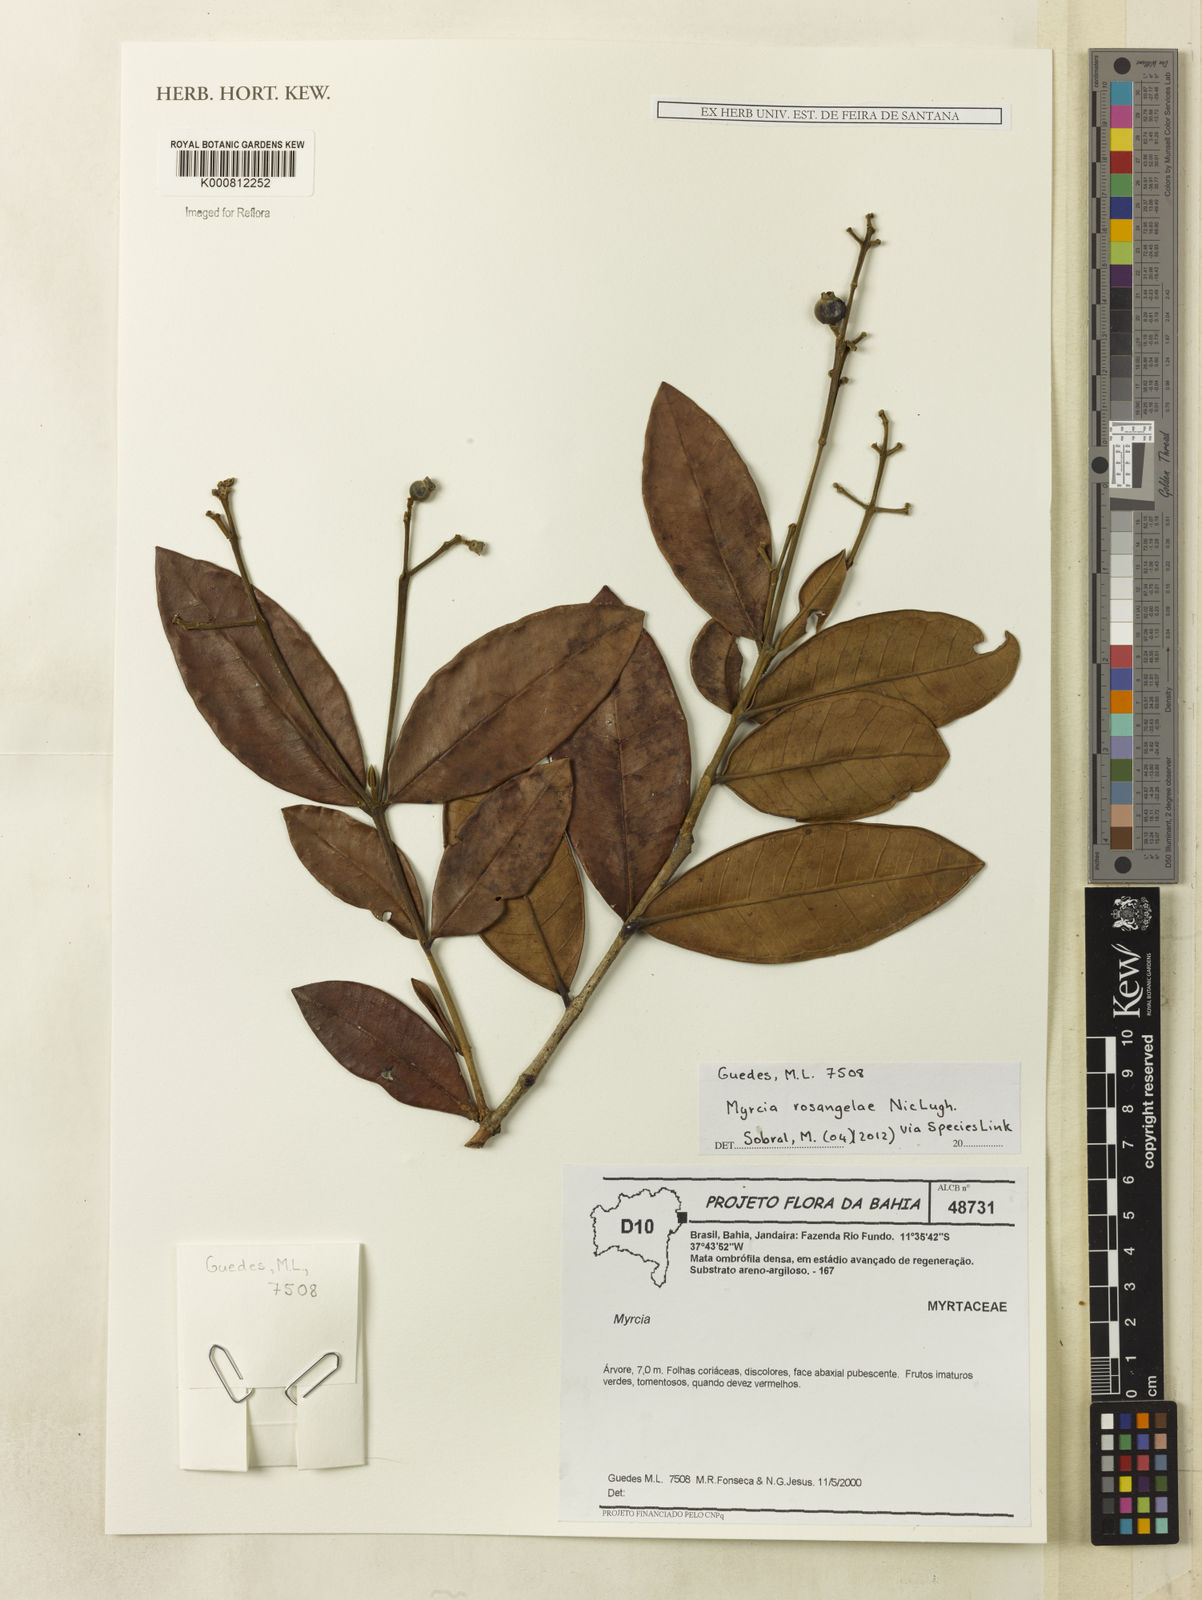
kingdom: Plantae
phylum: Tracheophyta
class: Magnoliopsida
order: Myrtales
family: Myrtaceae
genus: Myrcia
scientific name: Myrcia rosangelae
